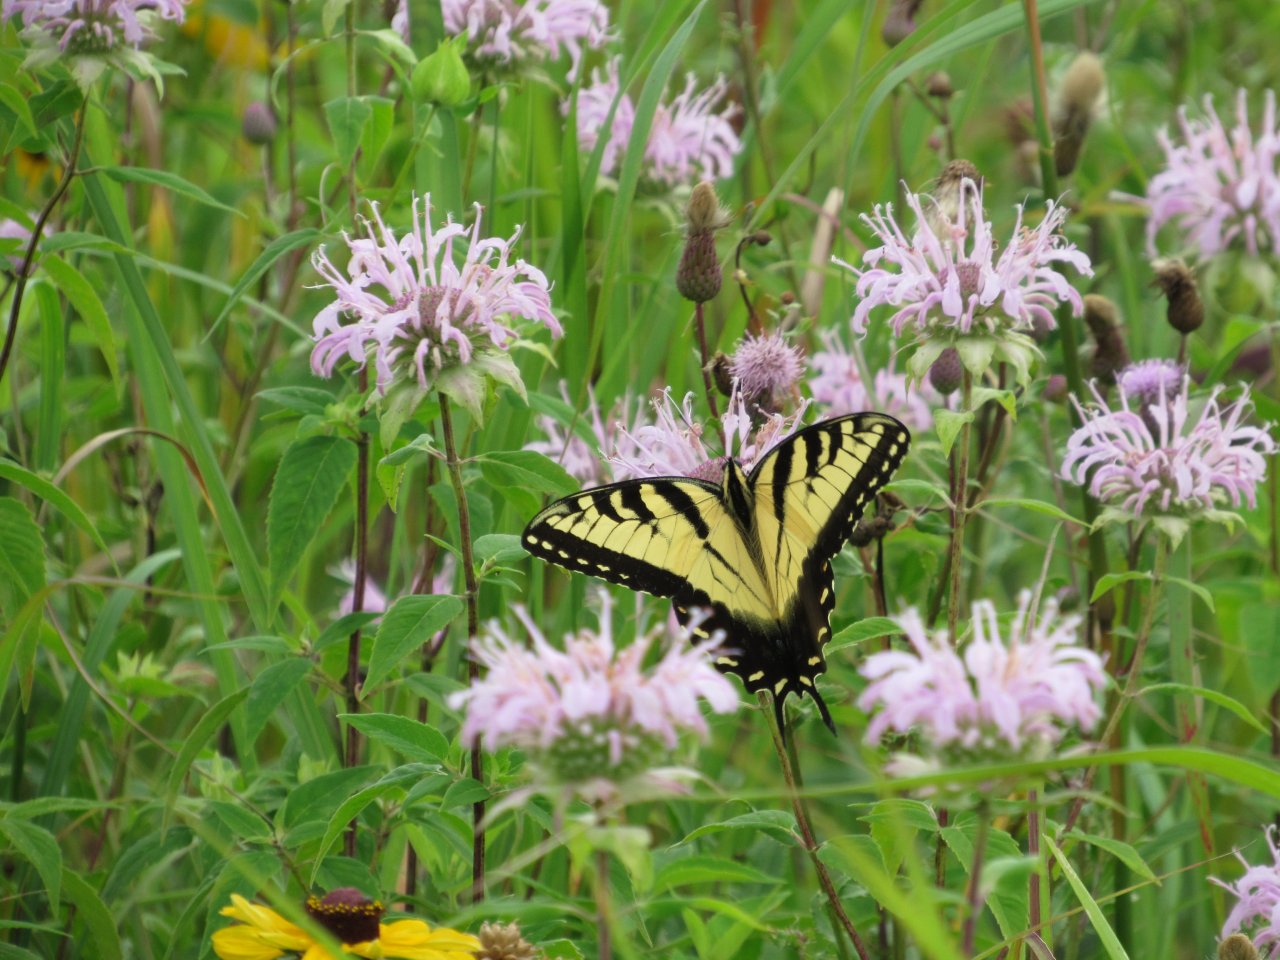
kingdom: Animalia
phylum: Arthropoda
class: Insecta
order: Lepidoptera
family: Papilionidae
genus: Pterourus
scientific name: Pterourus glaucus
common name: Eastern Tiger Swallowtail
